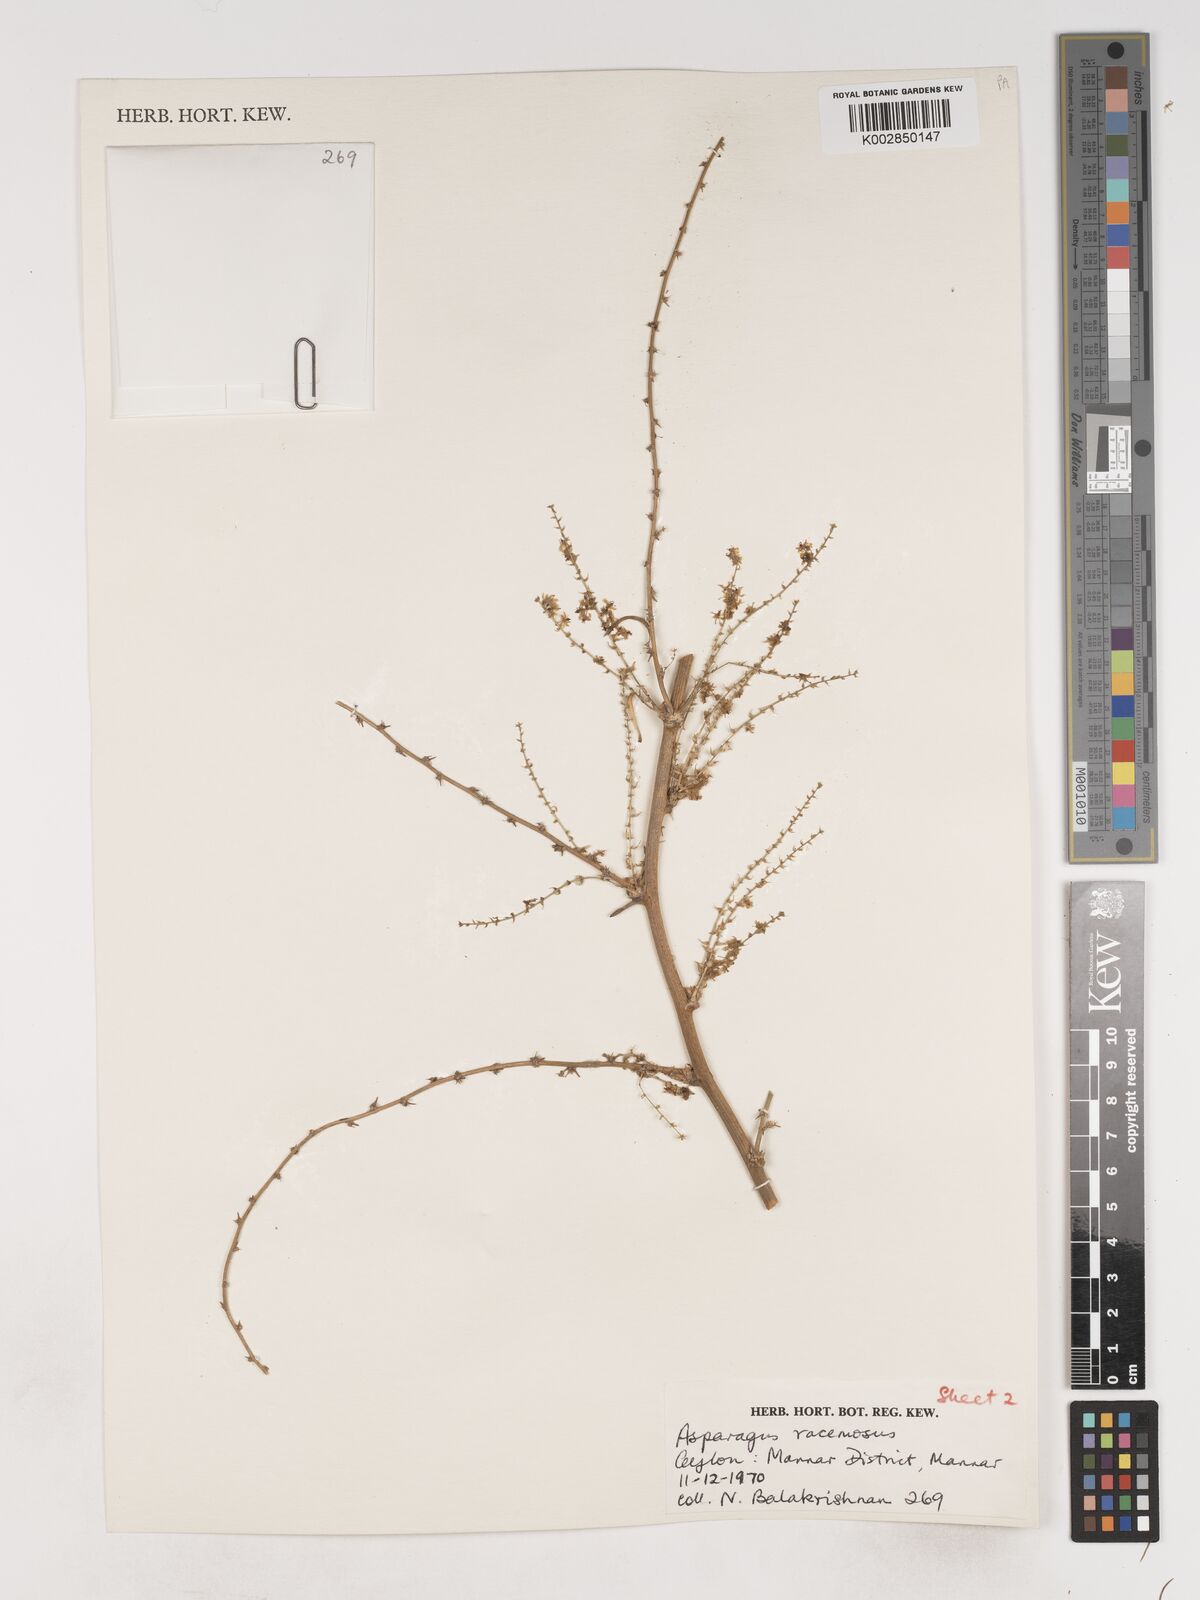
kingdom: Plantae
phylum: Tracheophyta
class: Liliopsida
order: Asparagales
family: Asparagaceae
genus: Asparagus
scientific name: Asparagus racemosus
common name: Asparagus-fern
